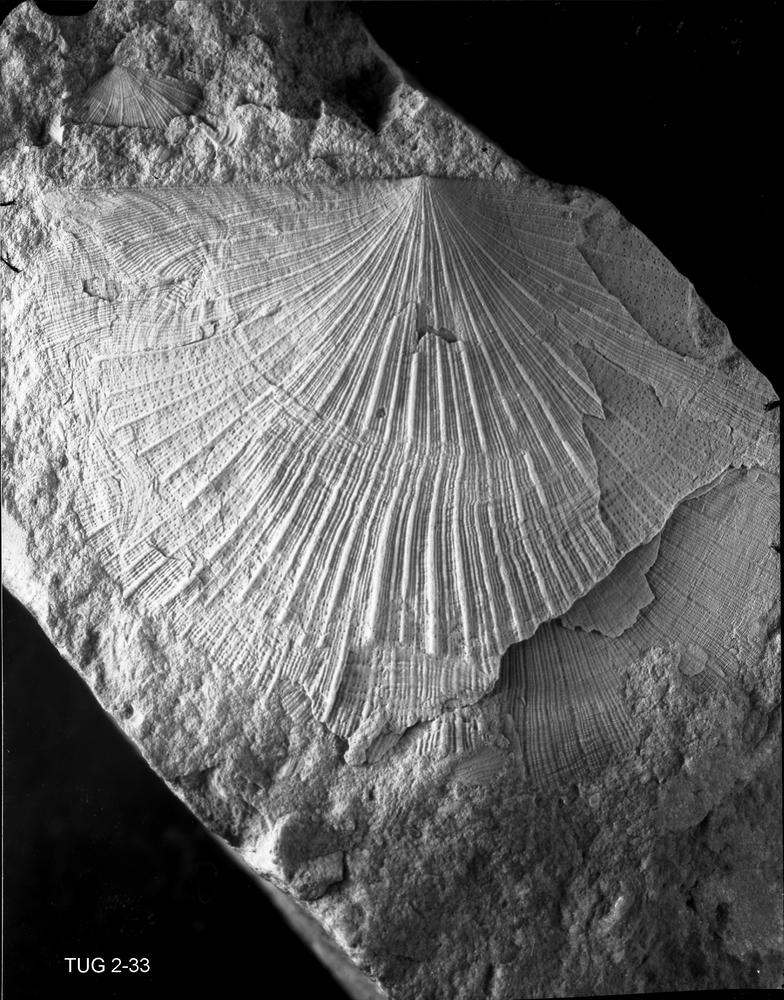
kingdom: Animalia
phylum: Brachiopoda
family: Rafinesquinidae
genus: Pirgumena
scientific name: Pirgumena
